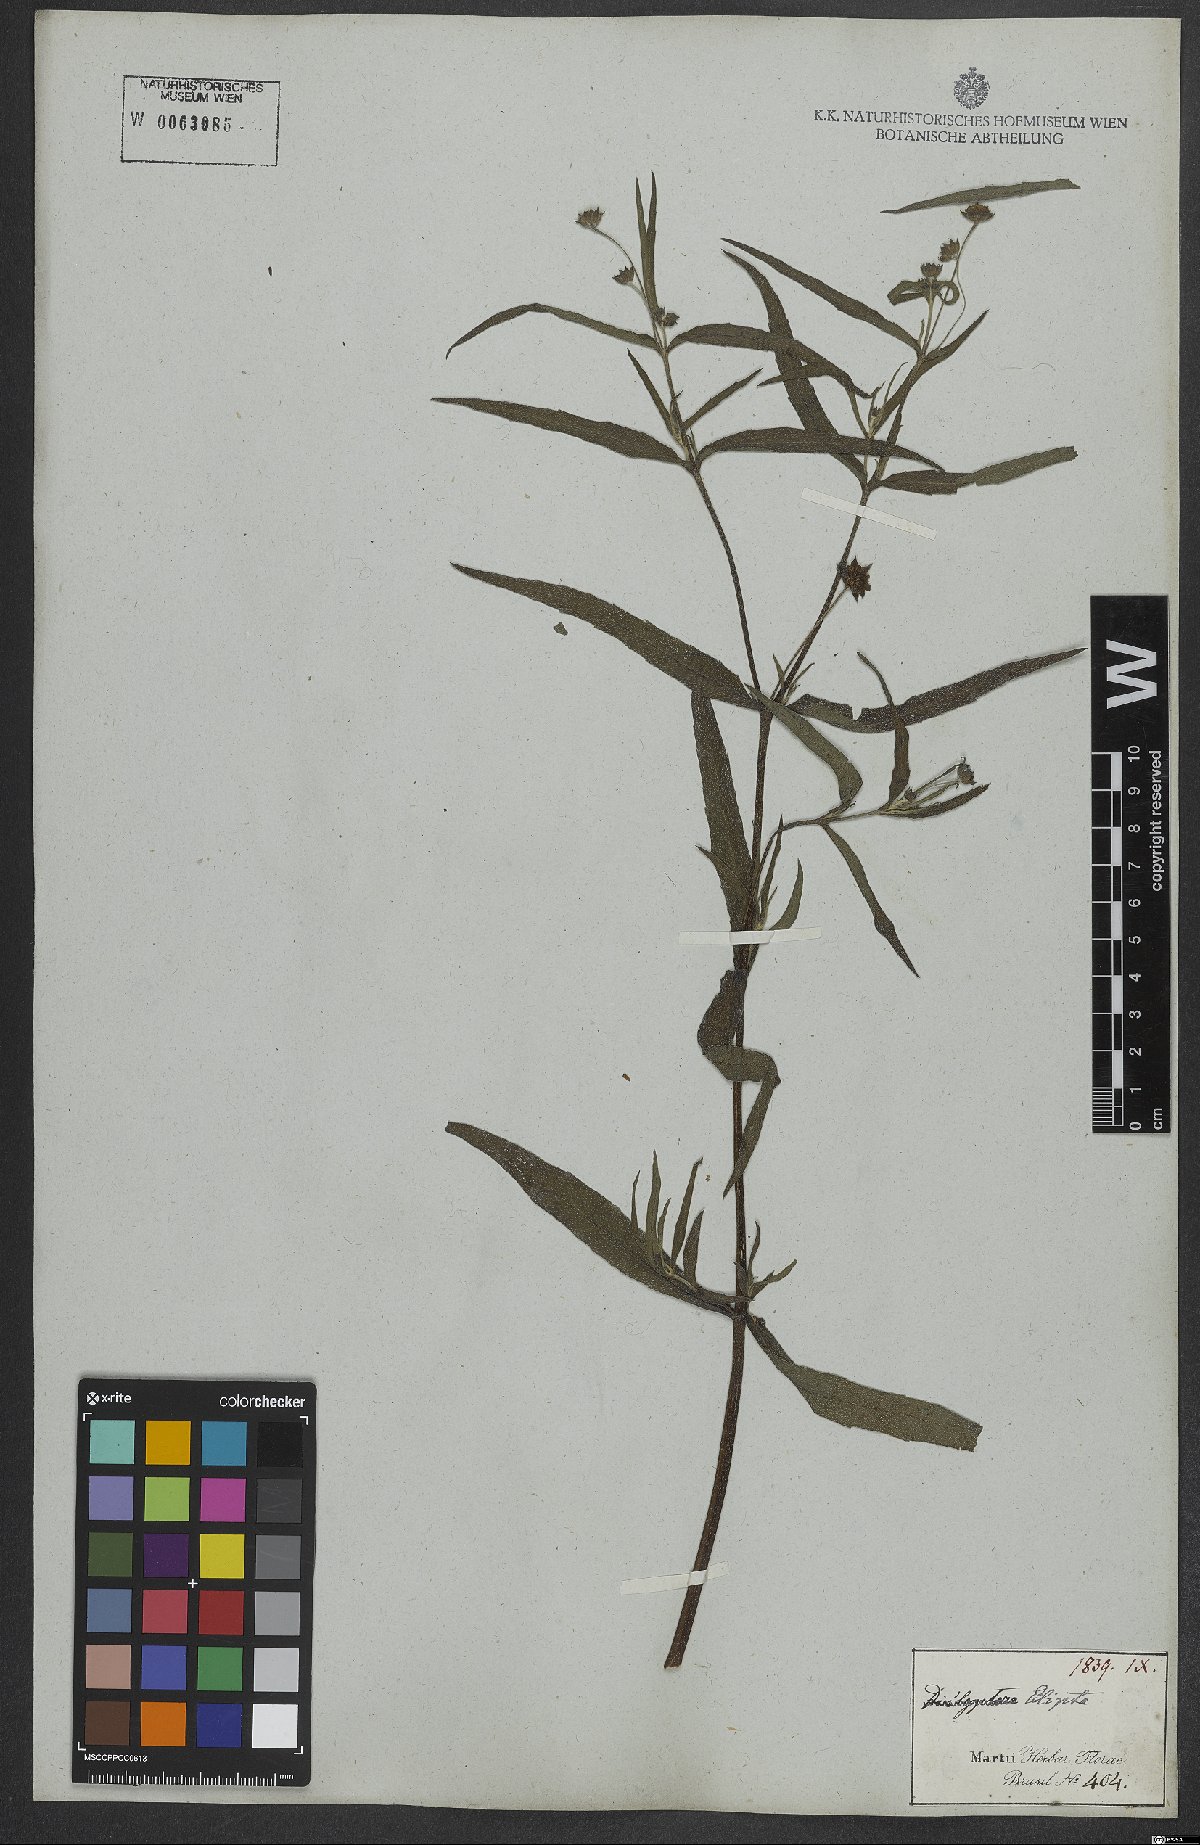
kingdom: Plantae
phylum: Tracheophyta
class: Magnoliopsida
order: Asterales
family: Asteraceae
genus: Eclipta
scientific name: Eclipta alba
